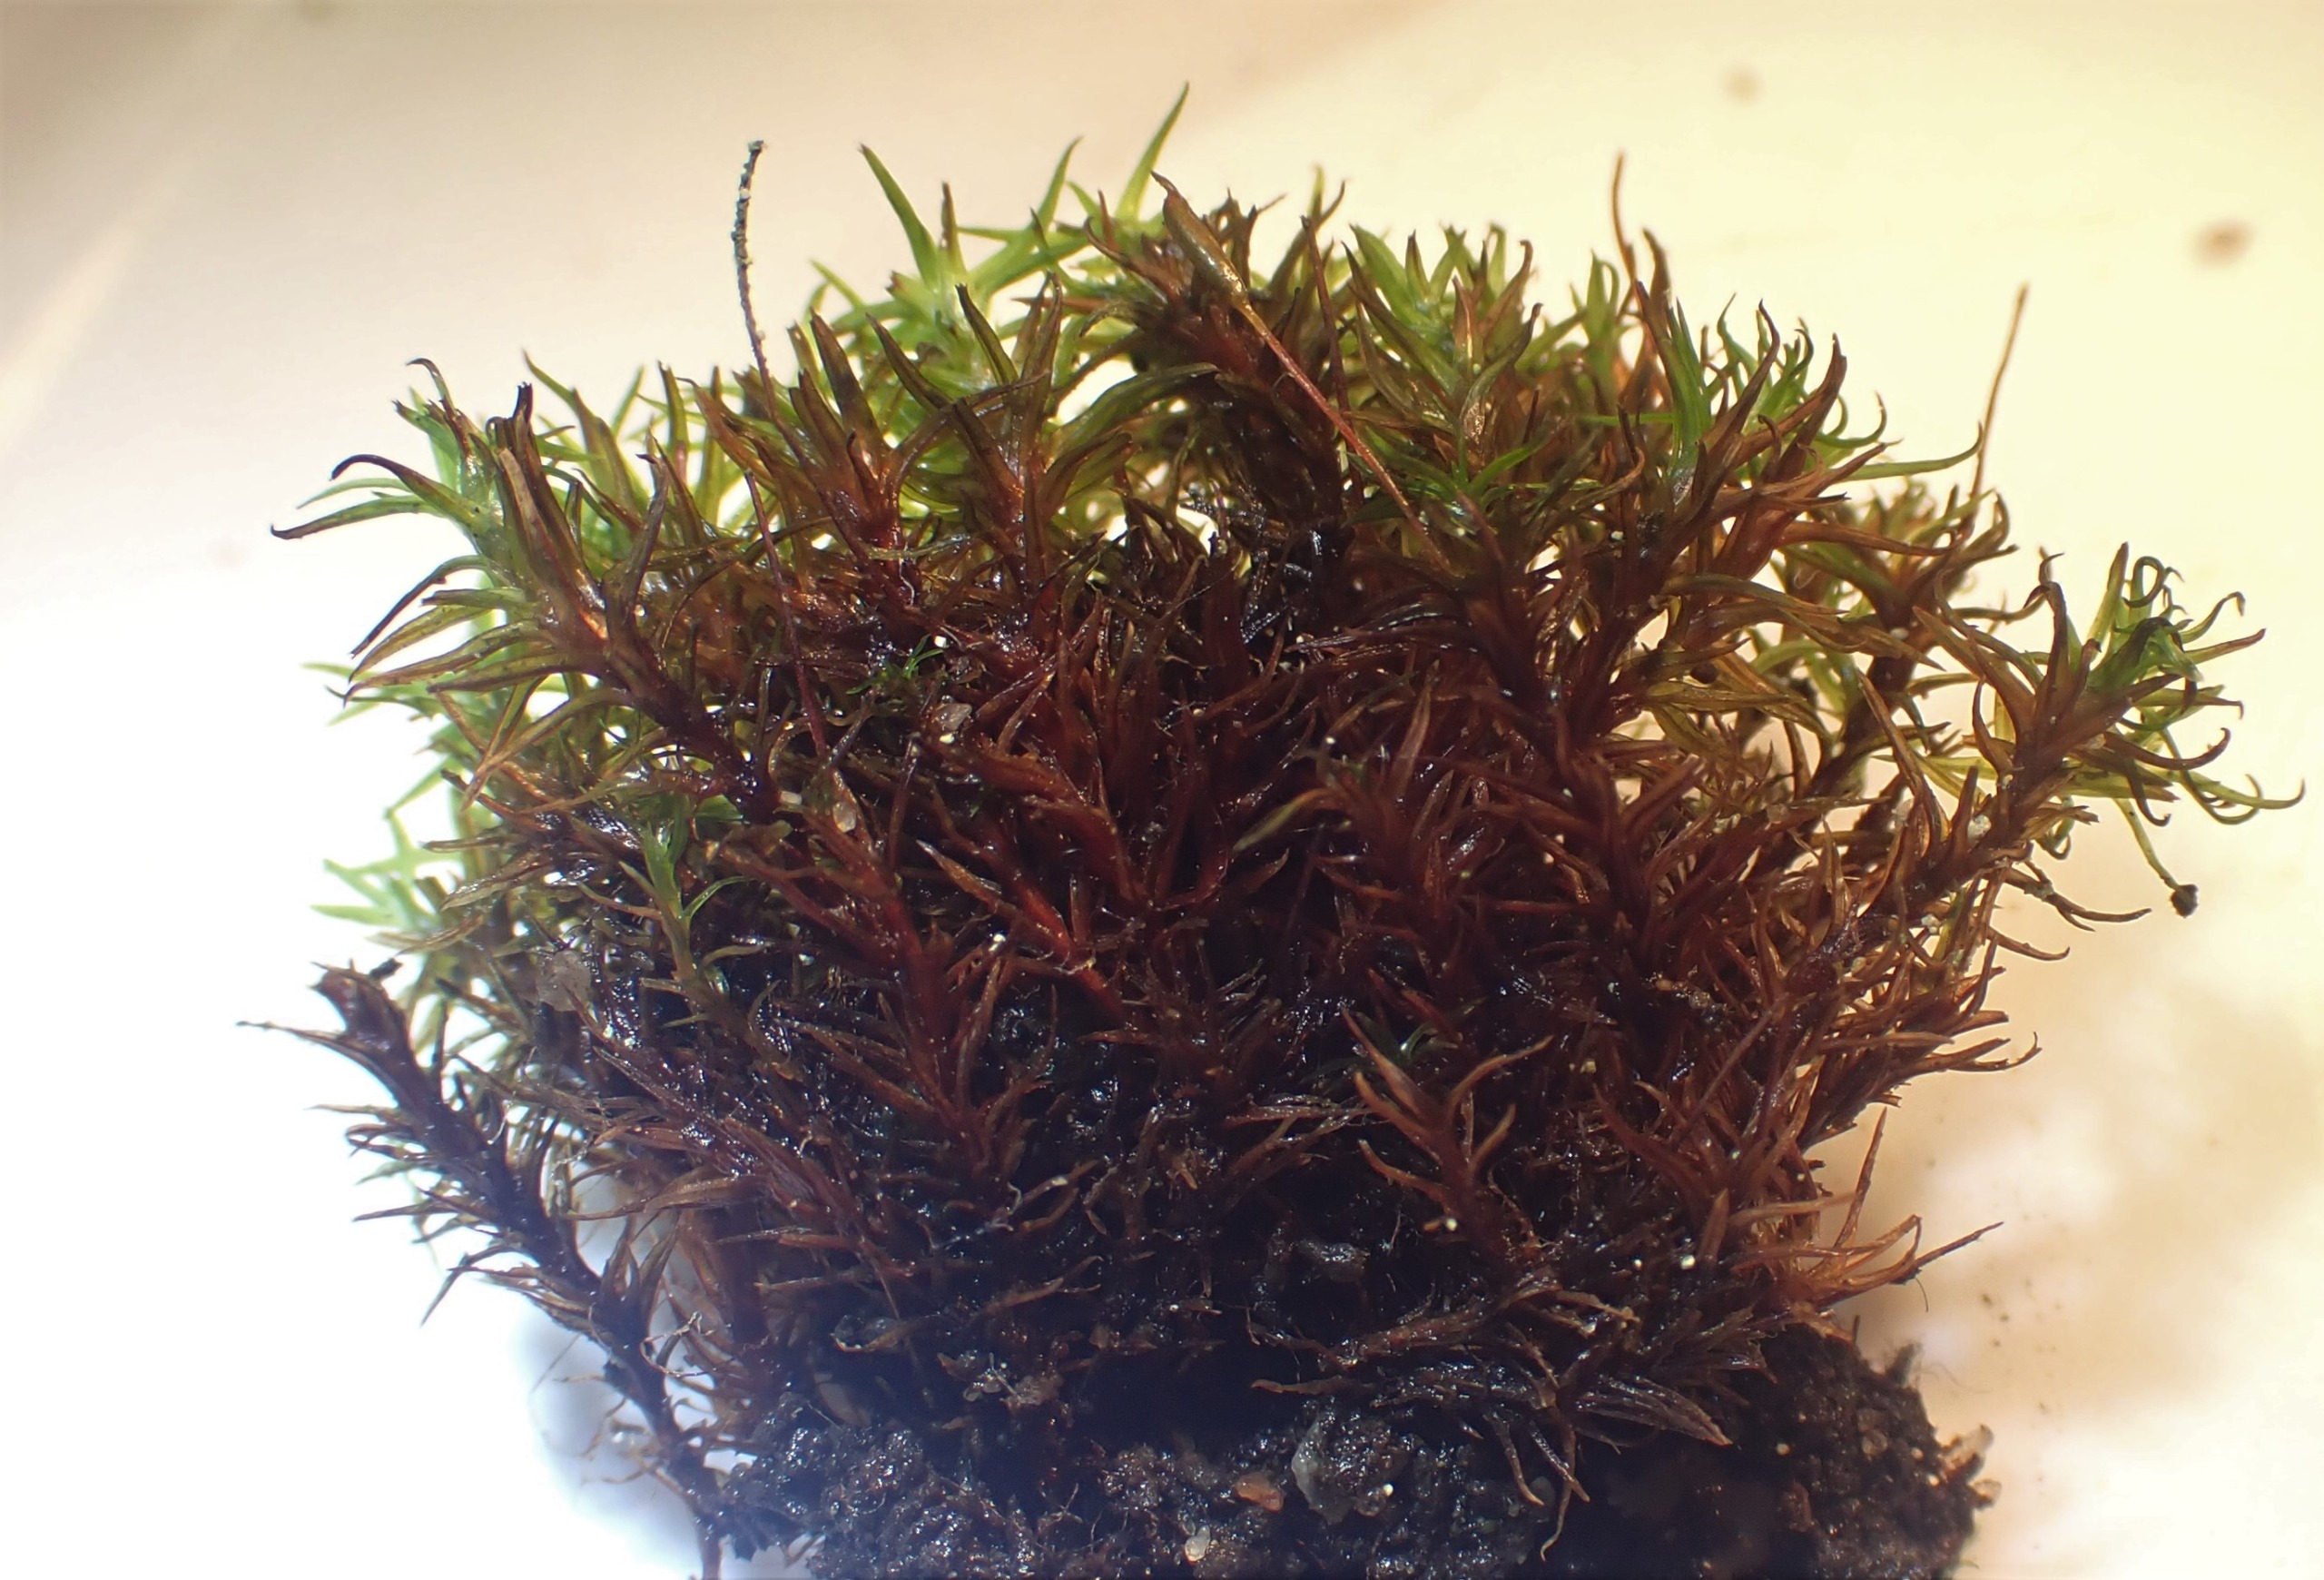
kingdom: Plantae
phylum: Bryophyta
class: Bryopsida
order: Pottiales
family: Pottiaceae
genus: Bryoerythrophyllum
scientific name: Bryoerythrophyllum recurvirostrum
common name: Rød gammelblad
